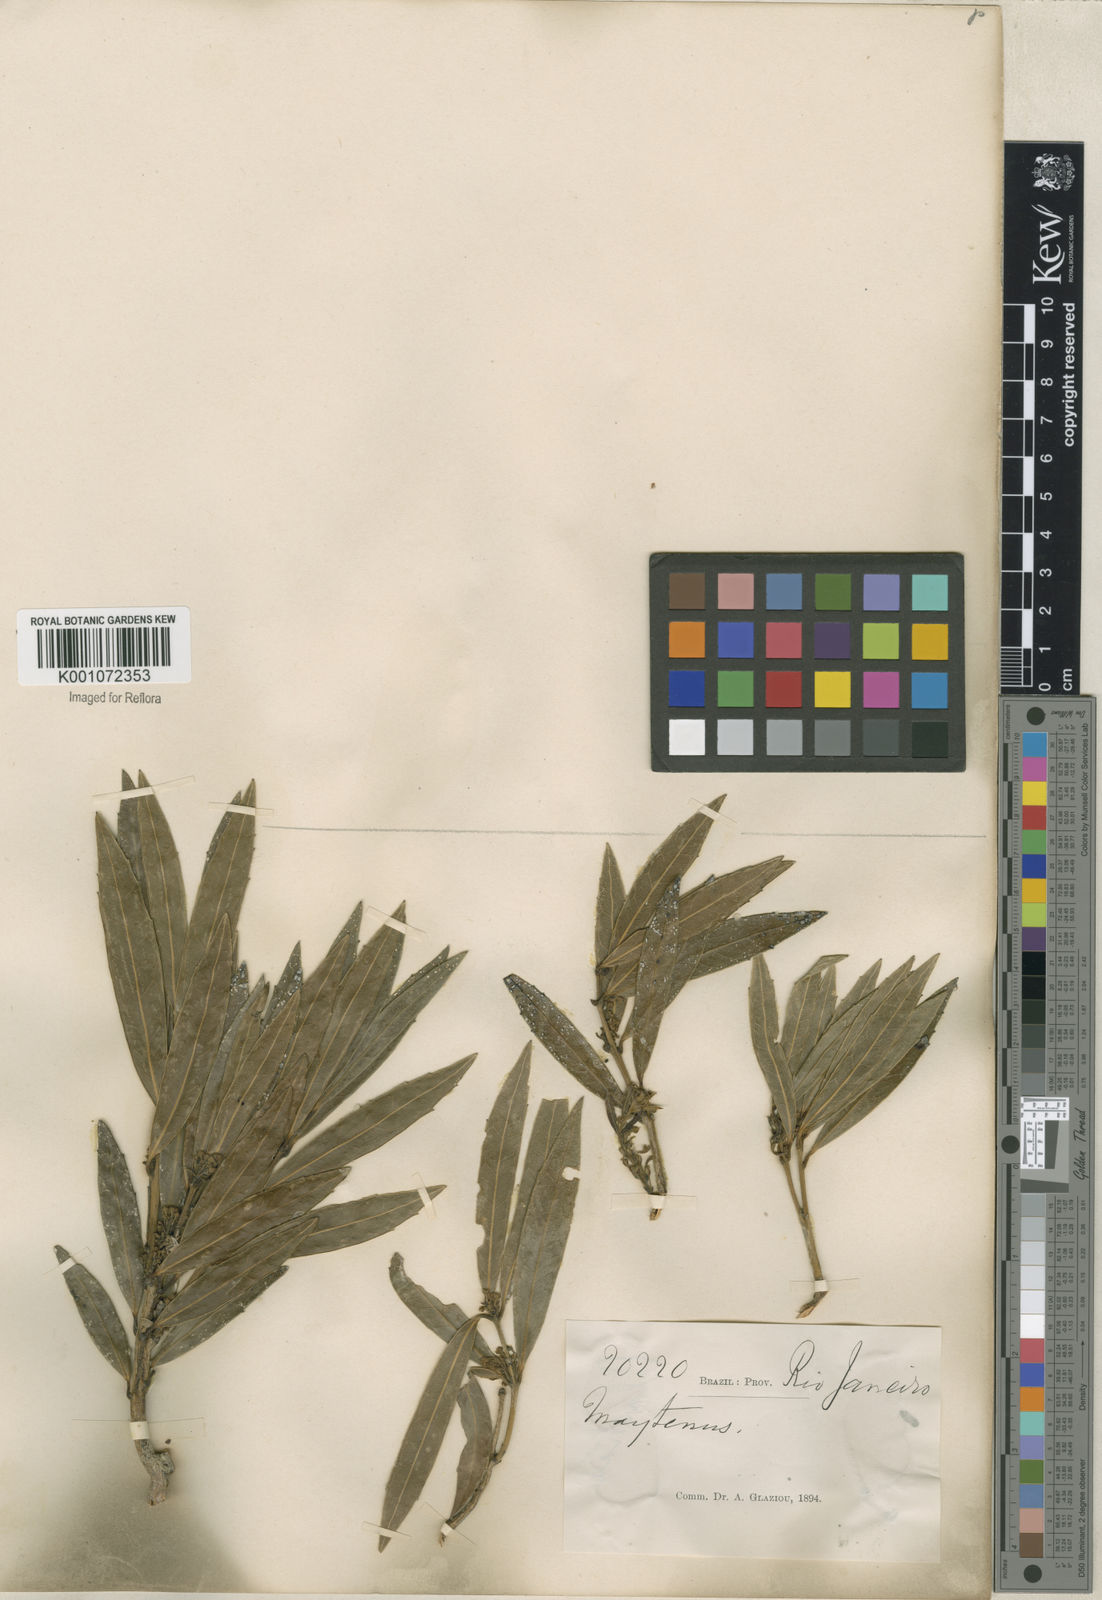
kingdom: Plantae
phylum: Tracheophyta
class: Magnoliopsida
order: Celastrales
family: Celastraceae
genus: Maytenus
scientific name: Maytenus
